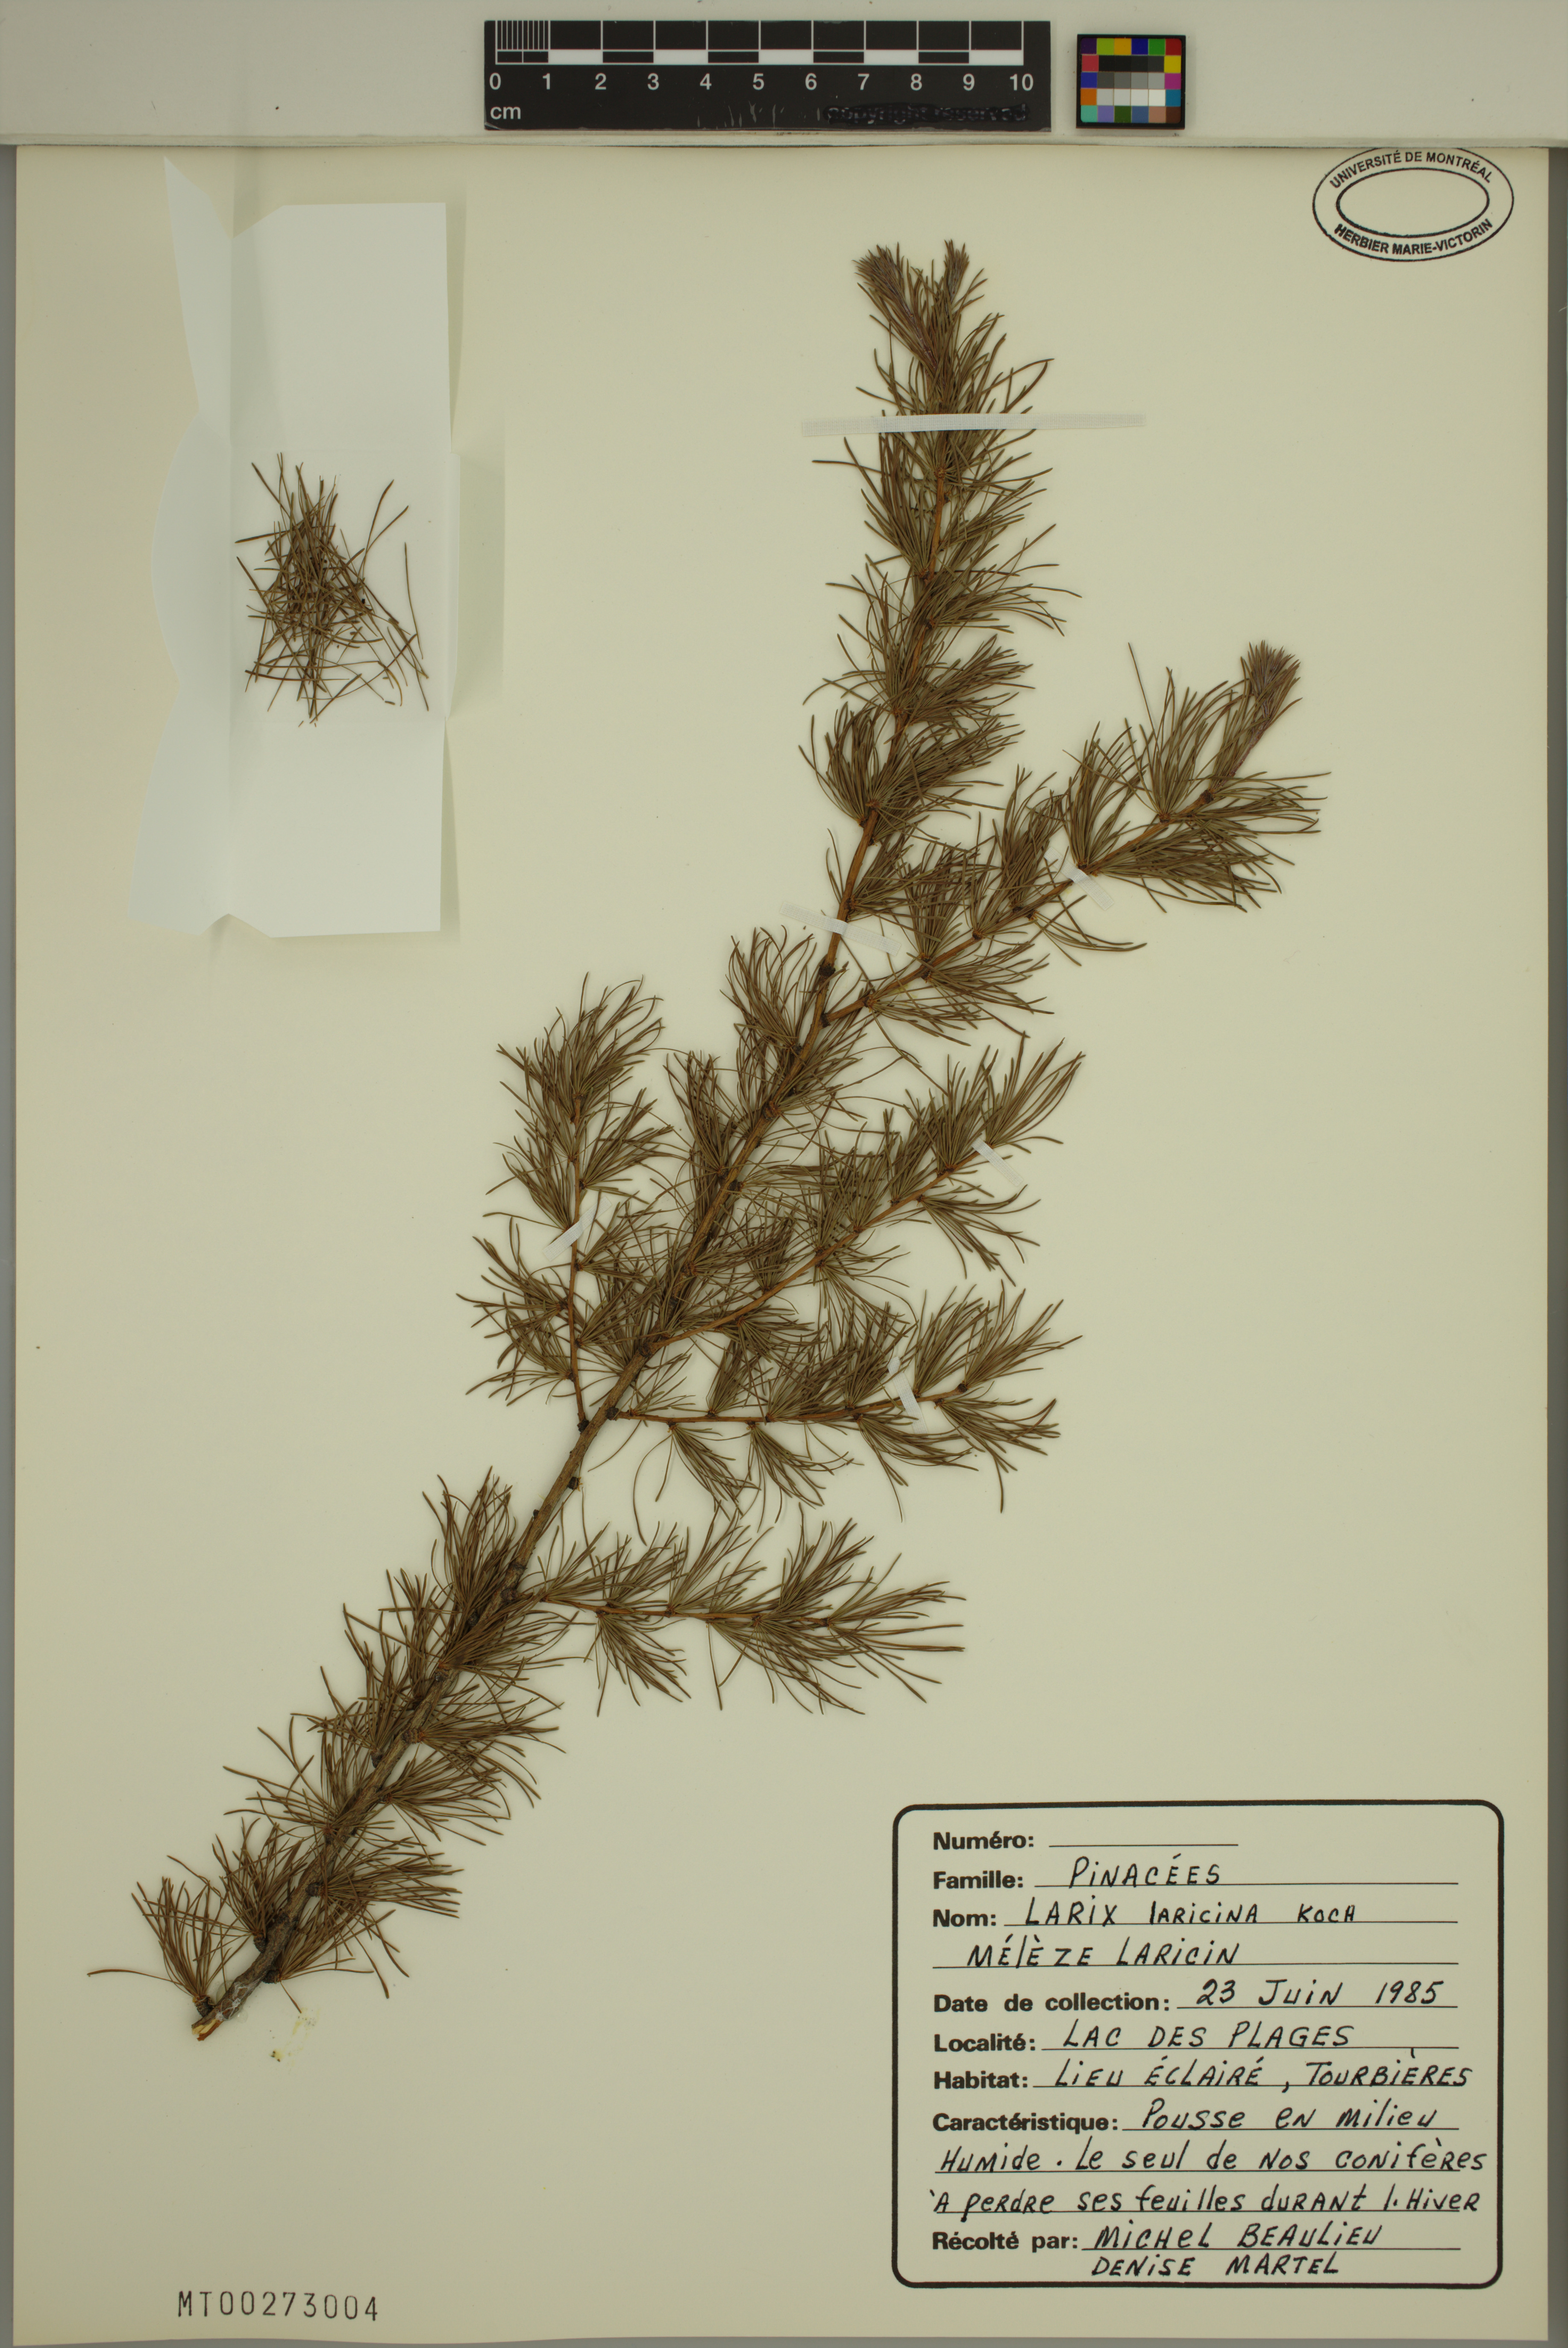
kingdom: Plantae
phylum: Tracheophyta
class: Pinopsida
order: Pinales
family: Pinaceae
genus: Larix
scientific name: Larix laricina
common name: American larch
